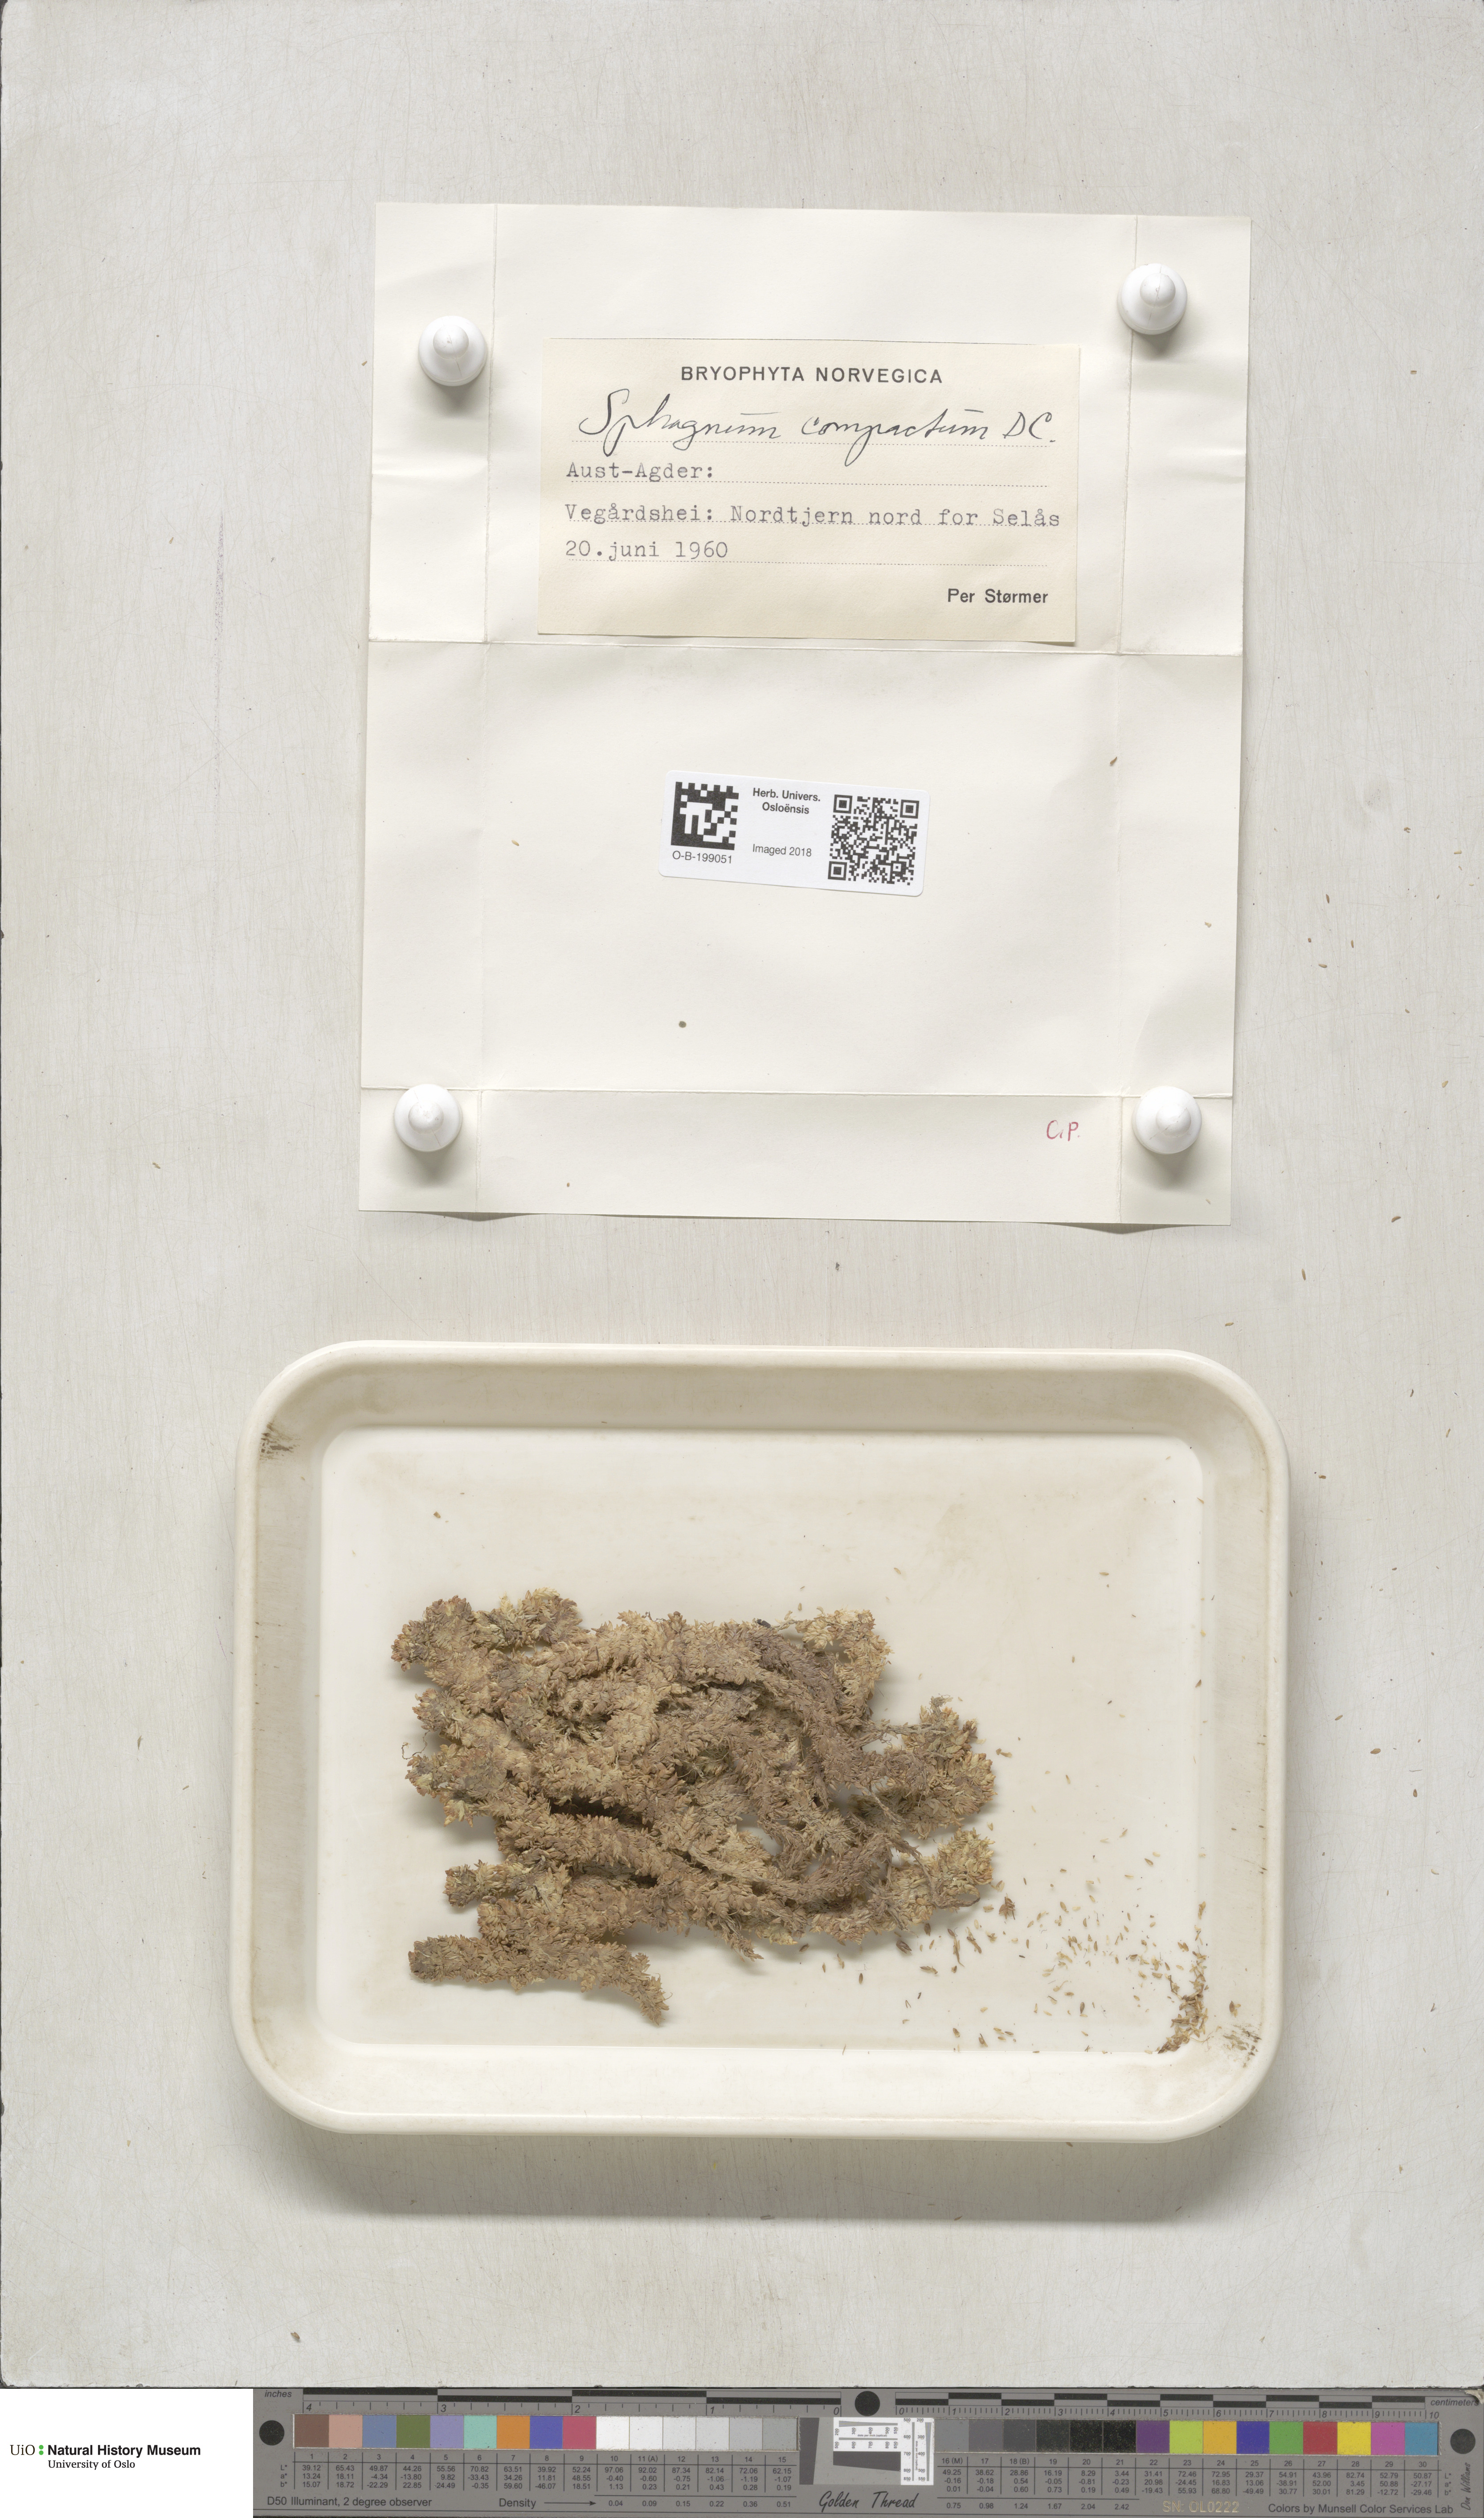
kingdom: Plantae
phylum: Bryophyta
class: Sphagnopsida
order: Sphagnales
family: Sphagnaceae
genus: Sphagnum
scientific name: Sphagnum compactum
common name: Compact peat moss
